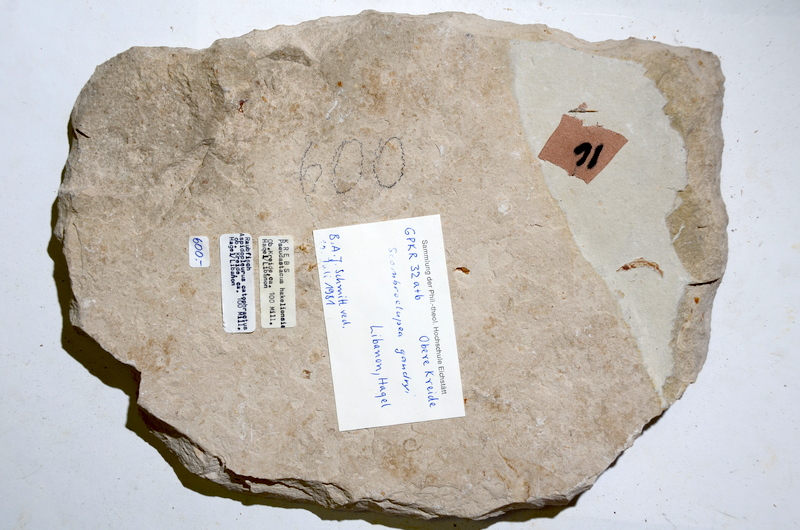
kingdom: Animalia
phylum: Chordata
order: Clupeiformes
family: Clupeidae
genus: Clupea
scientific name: Clupea harengus
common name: Herring
